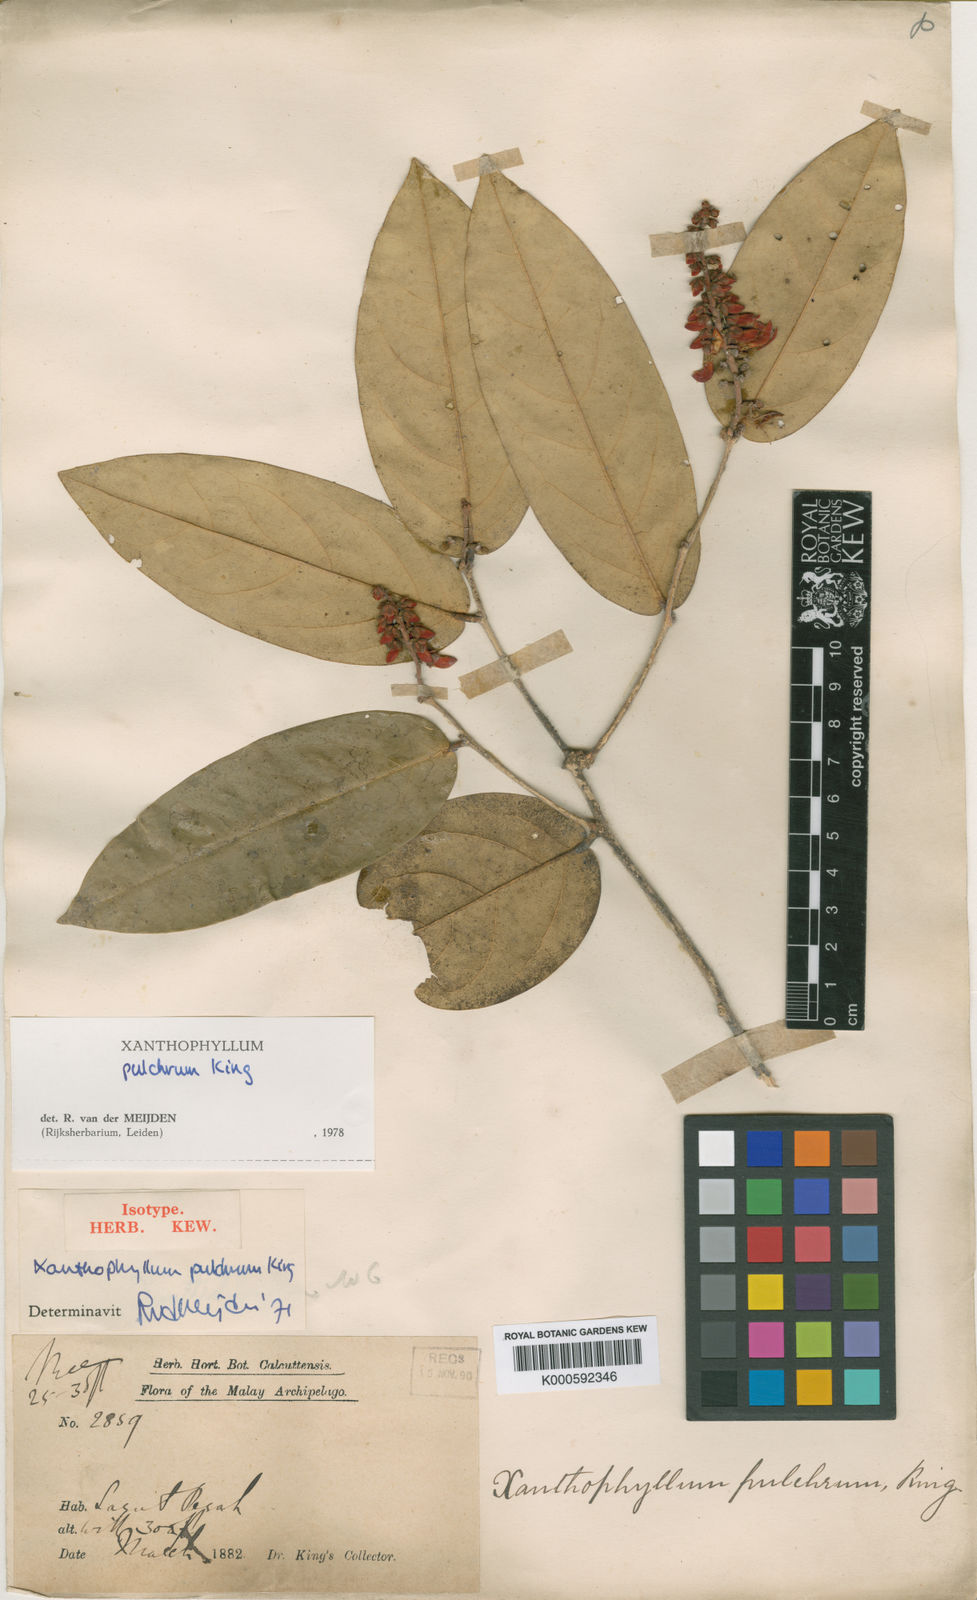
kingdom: Plantae
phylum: Tracheophyta
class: Magnoliopsida
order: Fabales
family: Polygalaceae
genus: Xanthophyllum
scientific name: Xanthophyllum pulchrum
